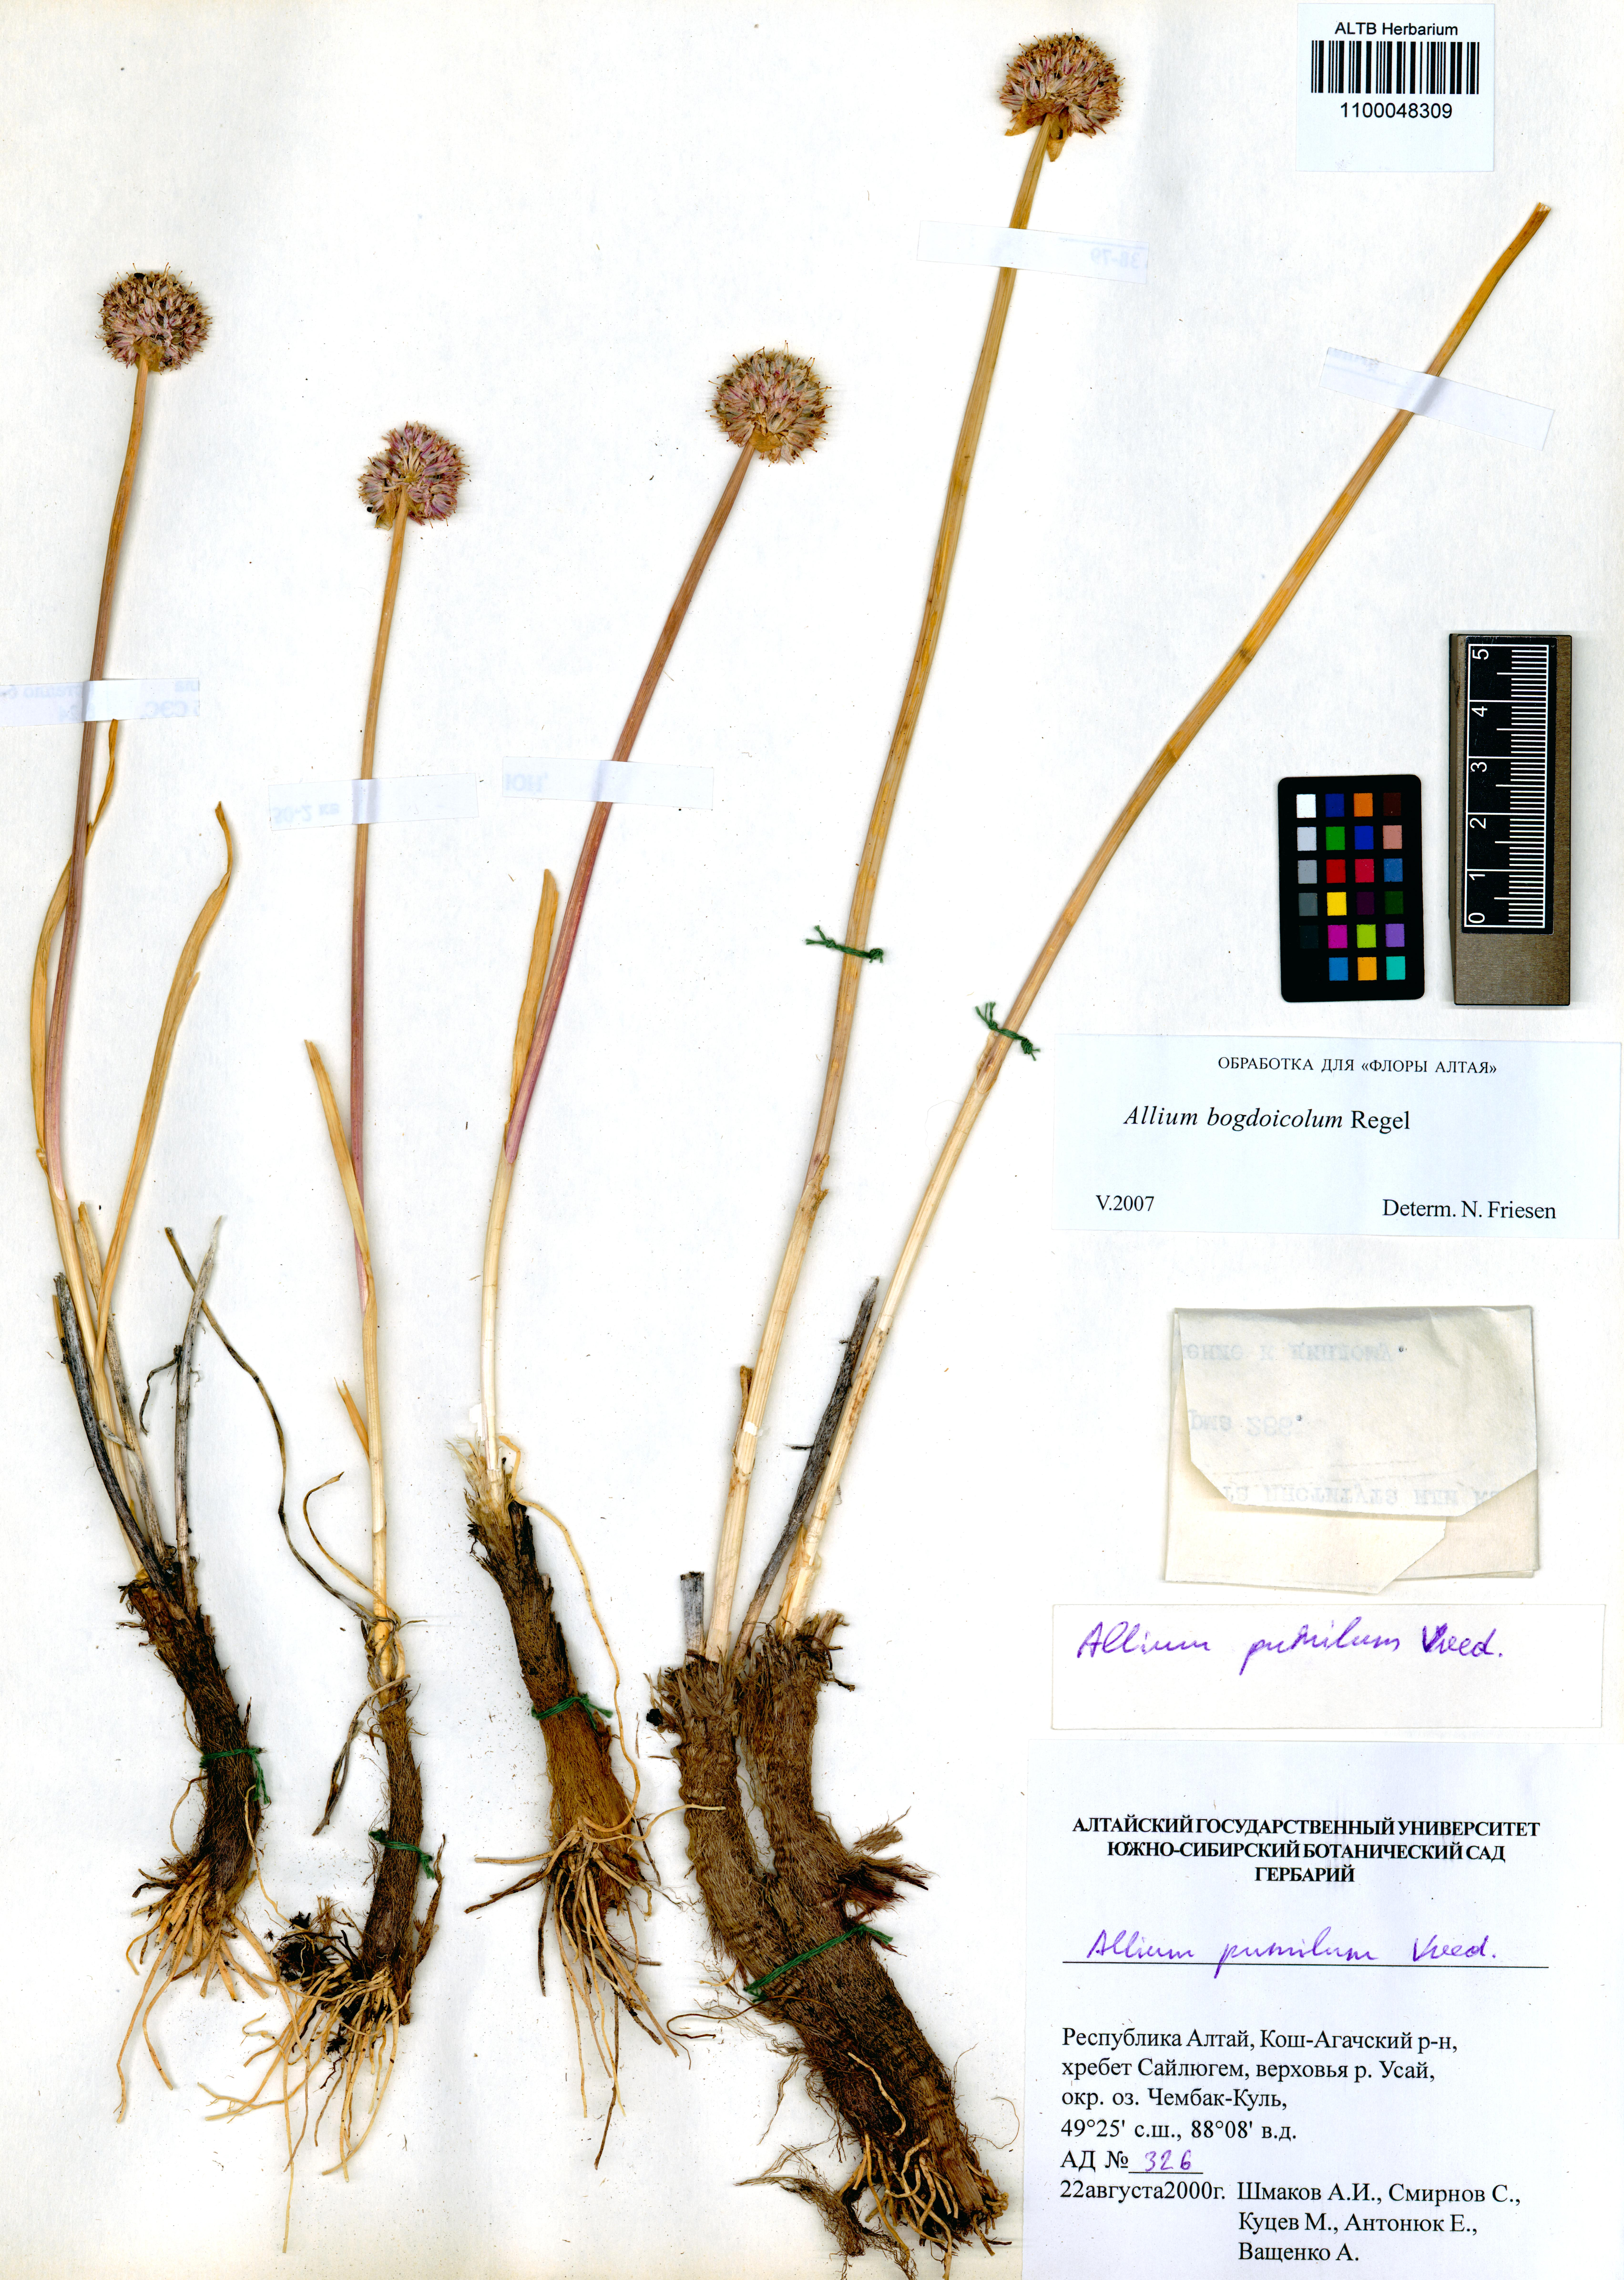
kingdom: Plantae
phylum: Tracheophyta
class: Liliopsida
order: Asparagales
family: Amaryllidaceae
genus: Allium
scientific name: Allium schrenkii
